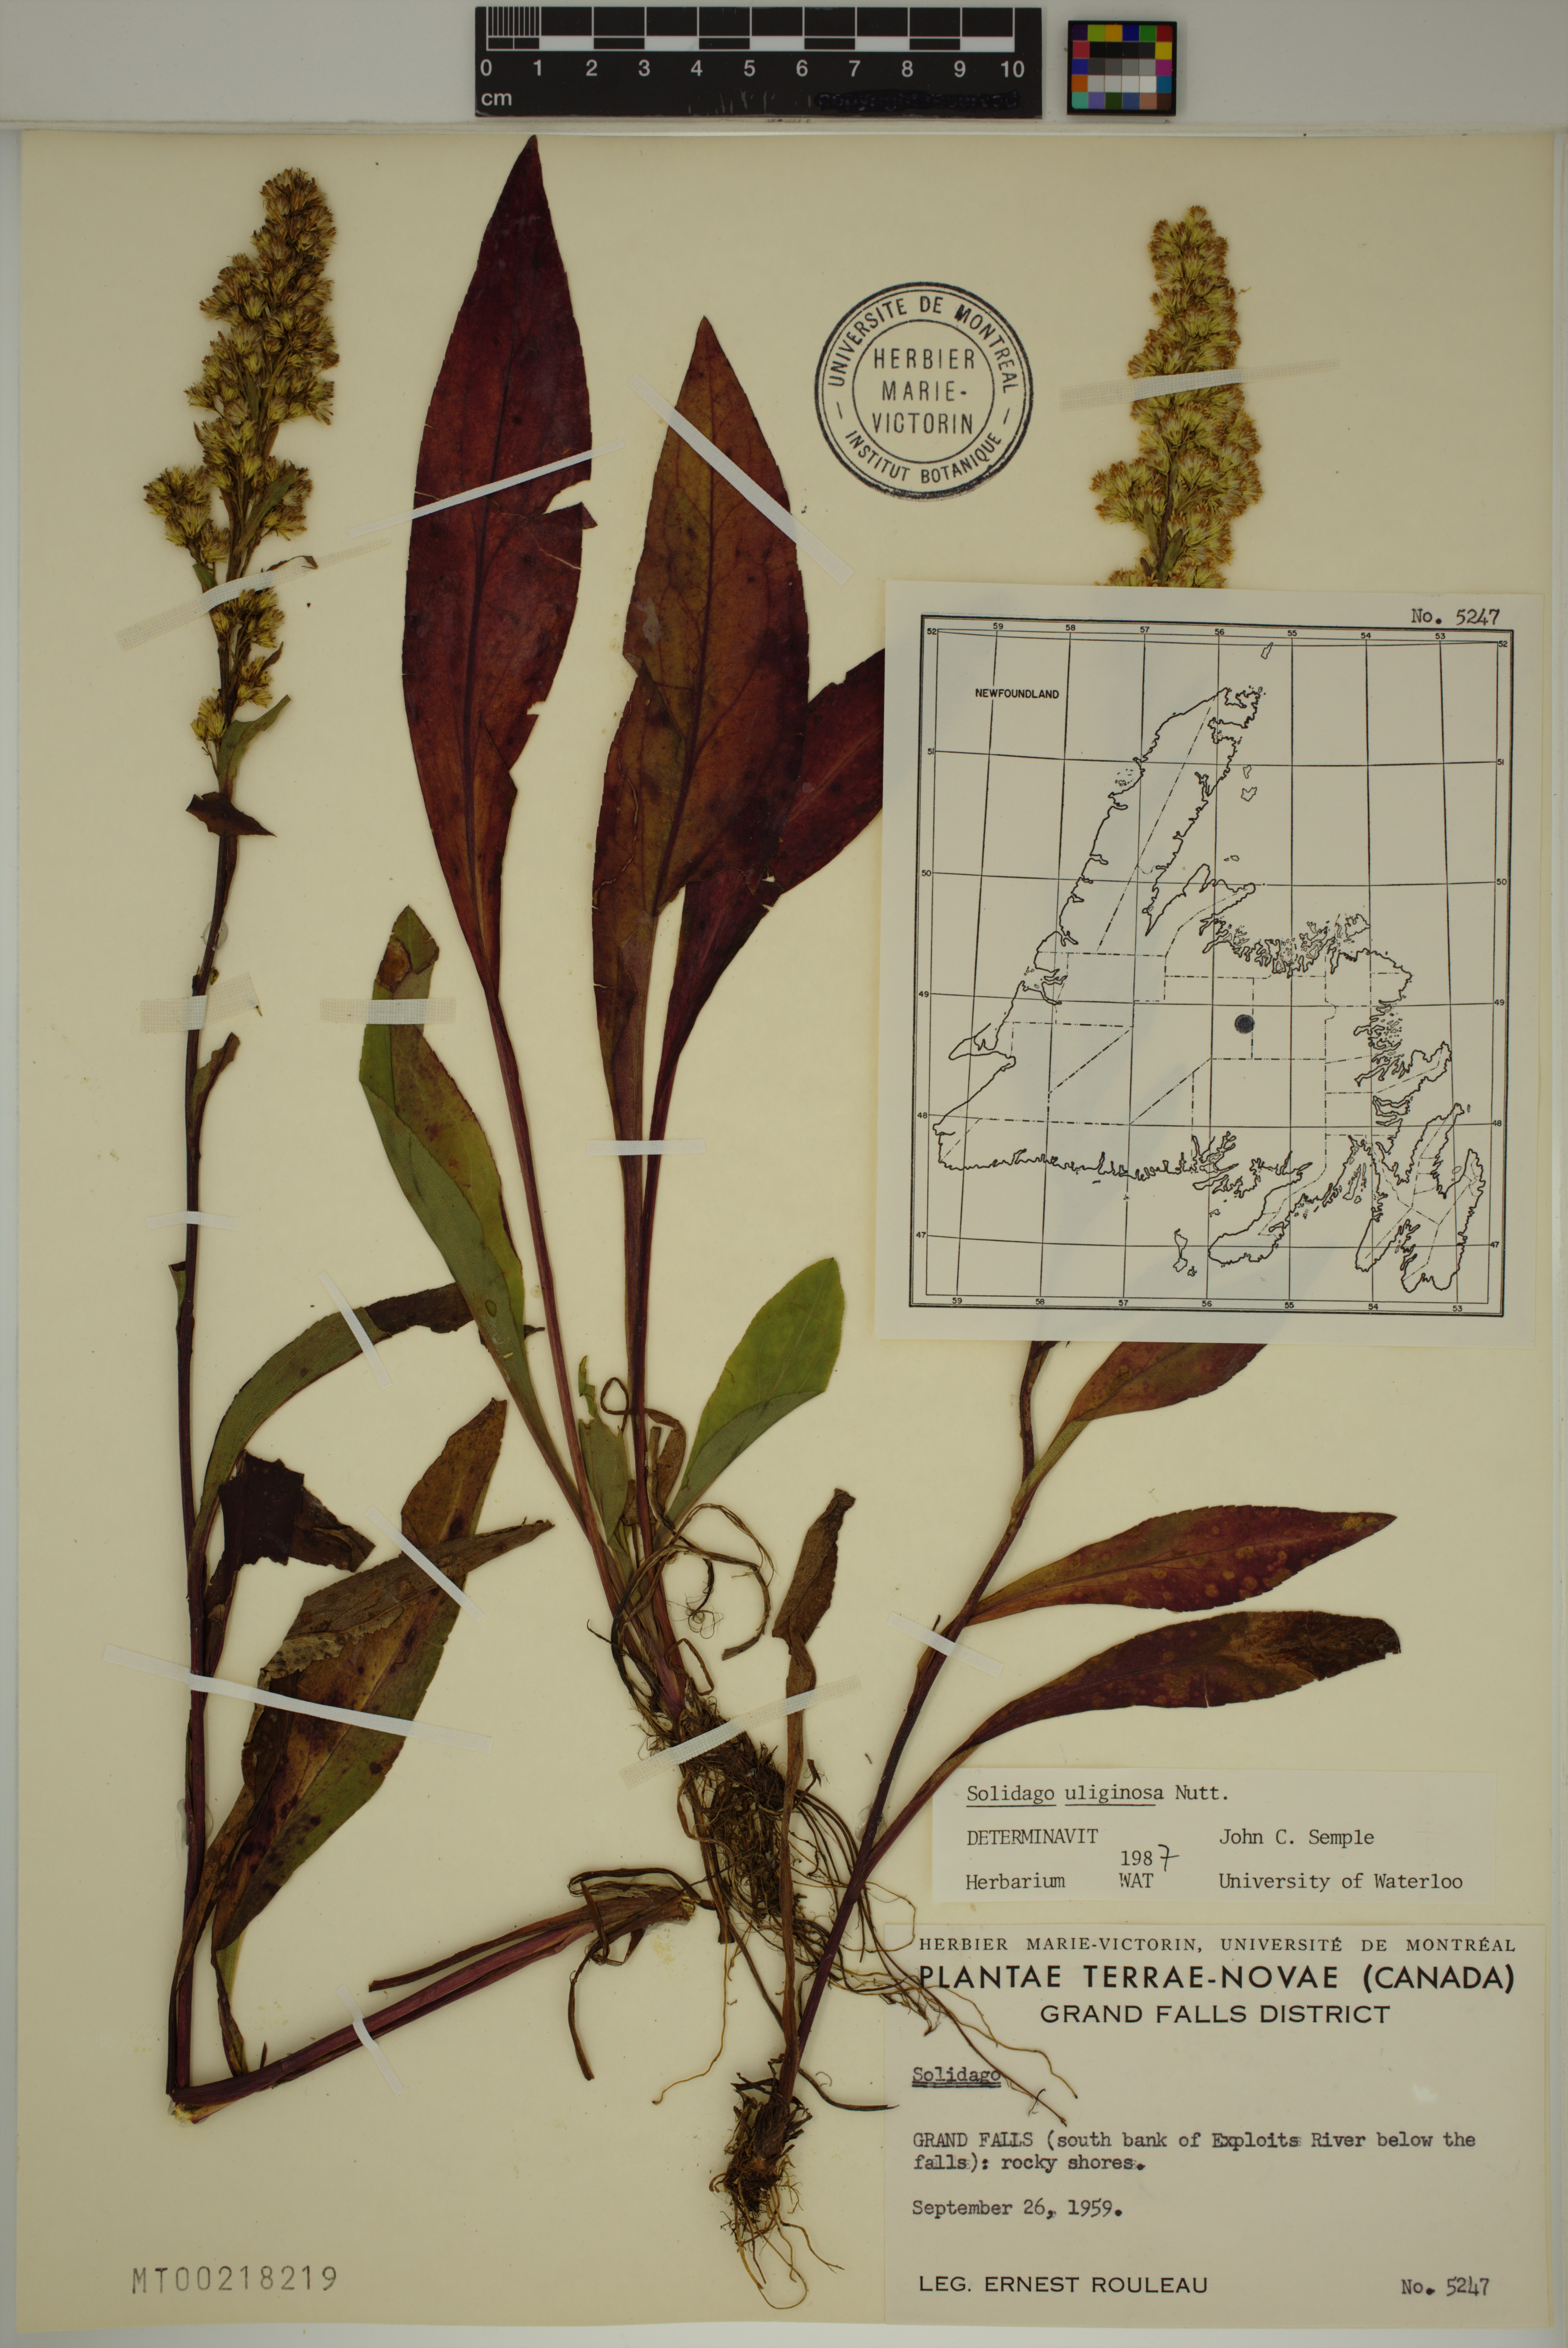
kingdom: Plantae
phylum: Tracheophyta
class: Magnoliopsida
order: Asterales
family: Asteraceae
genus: Solidago
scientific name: Solidago uliginosa
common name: Bog goldenrod
